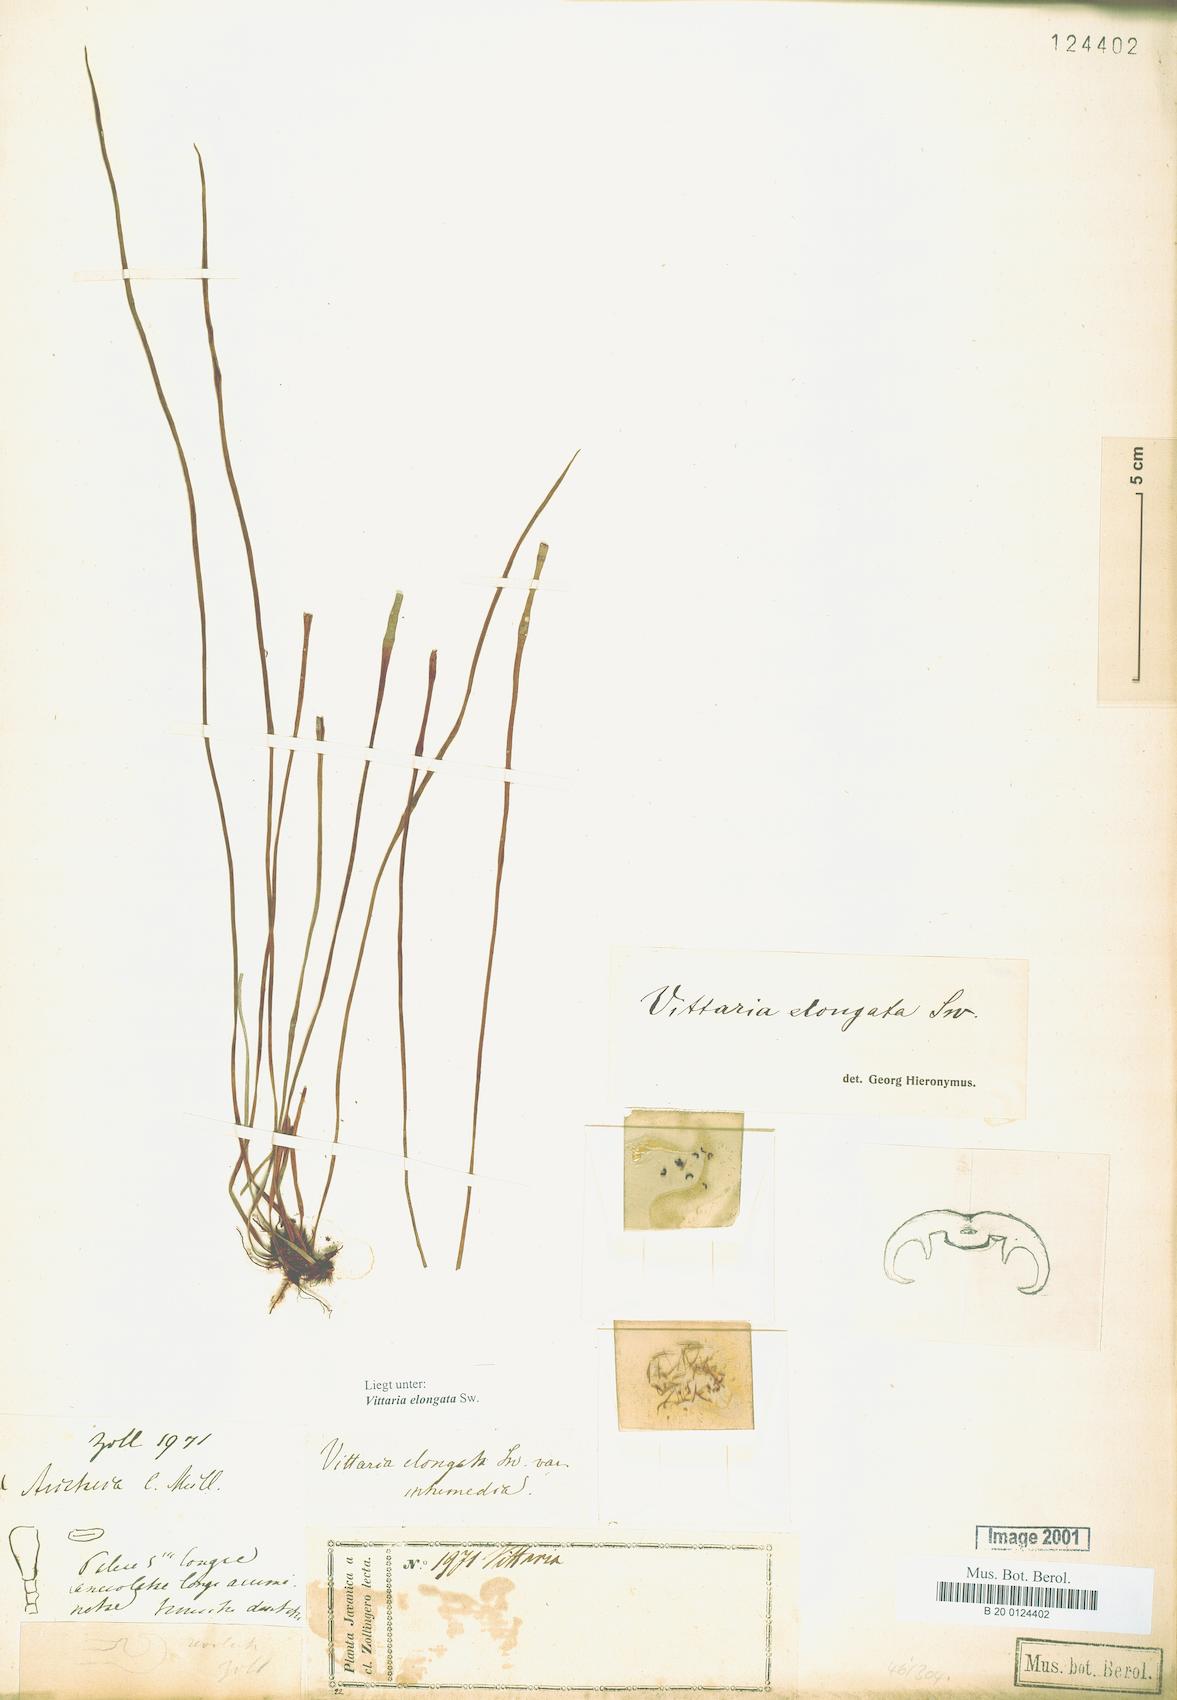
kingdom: Plantae
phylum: Tracheophyta
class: Polypodiopsida
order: Polypodiales
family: Pteridaceae
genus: Haplopteris
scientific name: Haplopteris elongata
